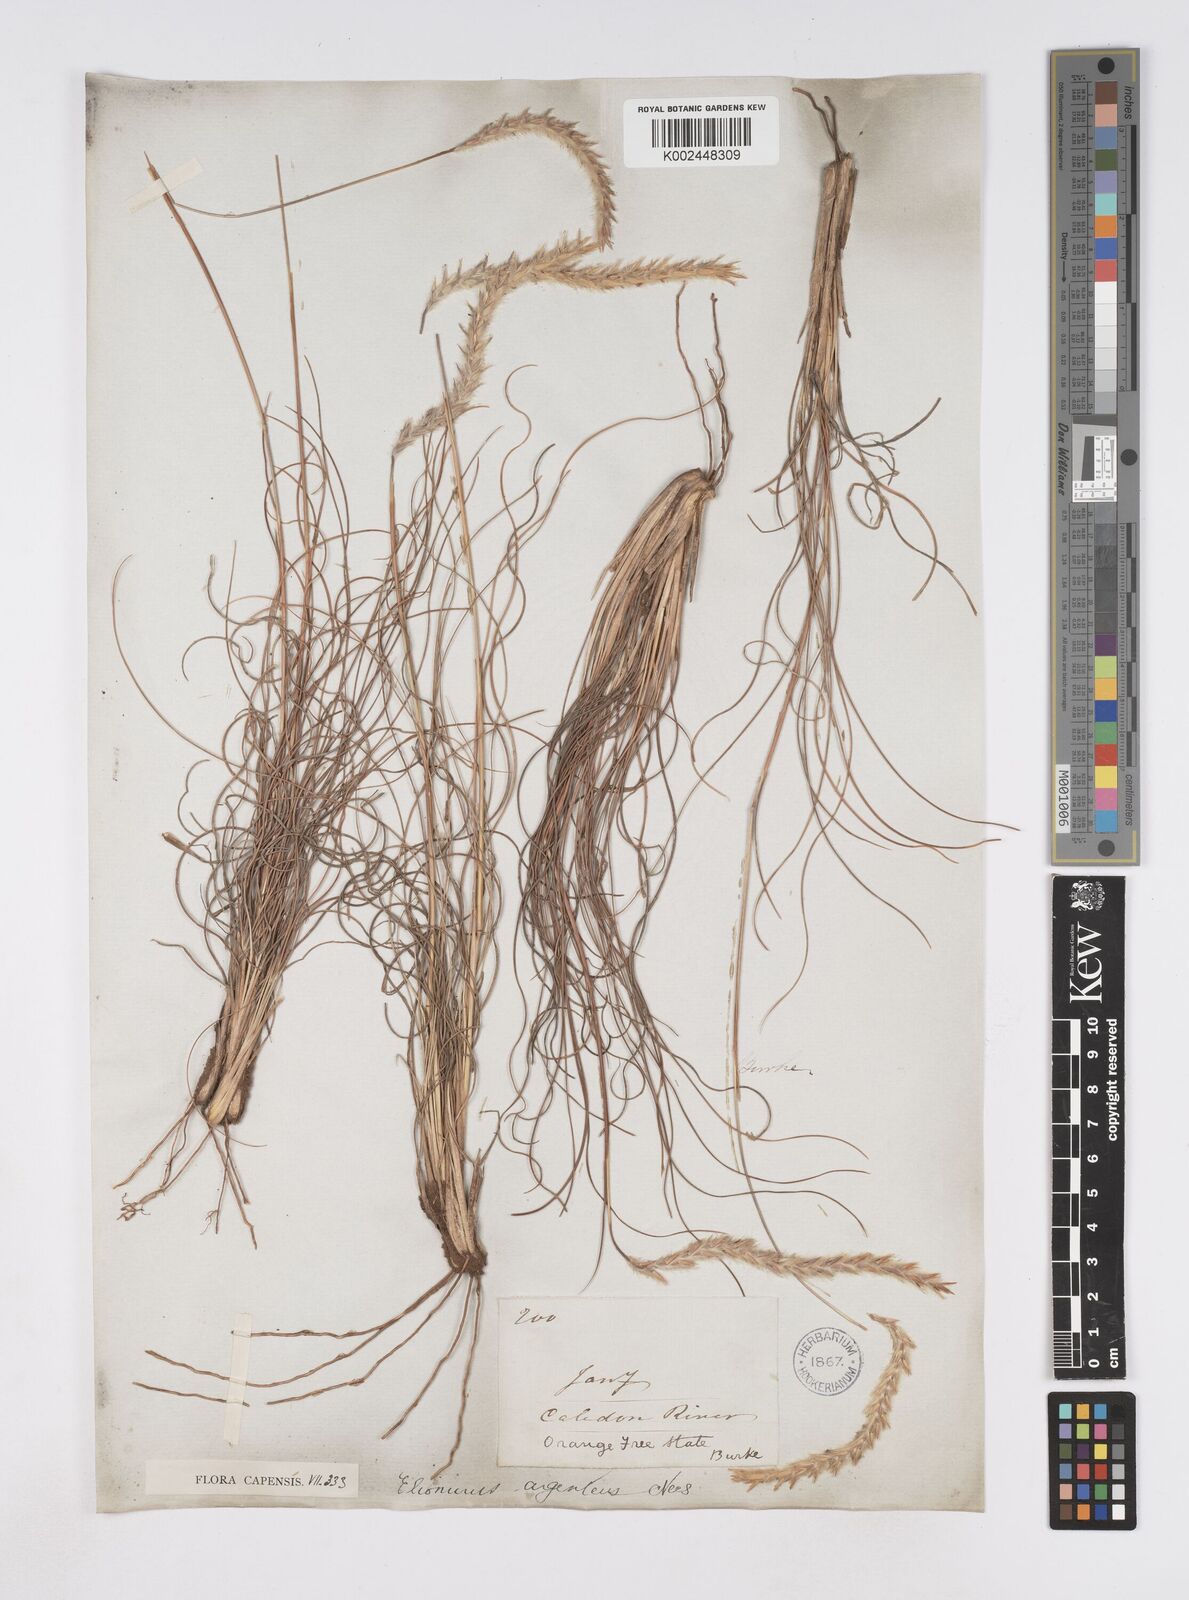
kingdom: Plantae
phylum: Tracheophyta
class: Liliopsida
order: Poales
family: Poaceae
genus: Elionurus
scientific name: Elionurus muticus
